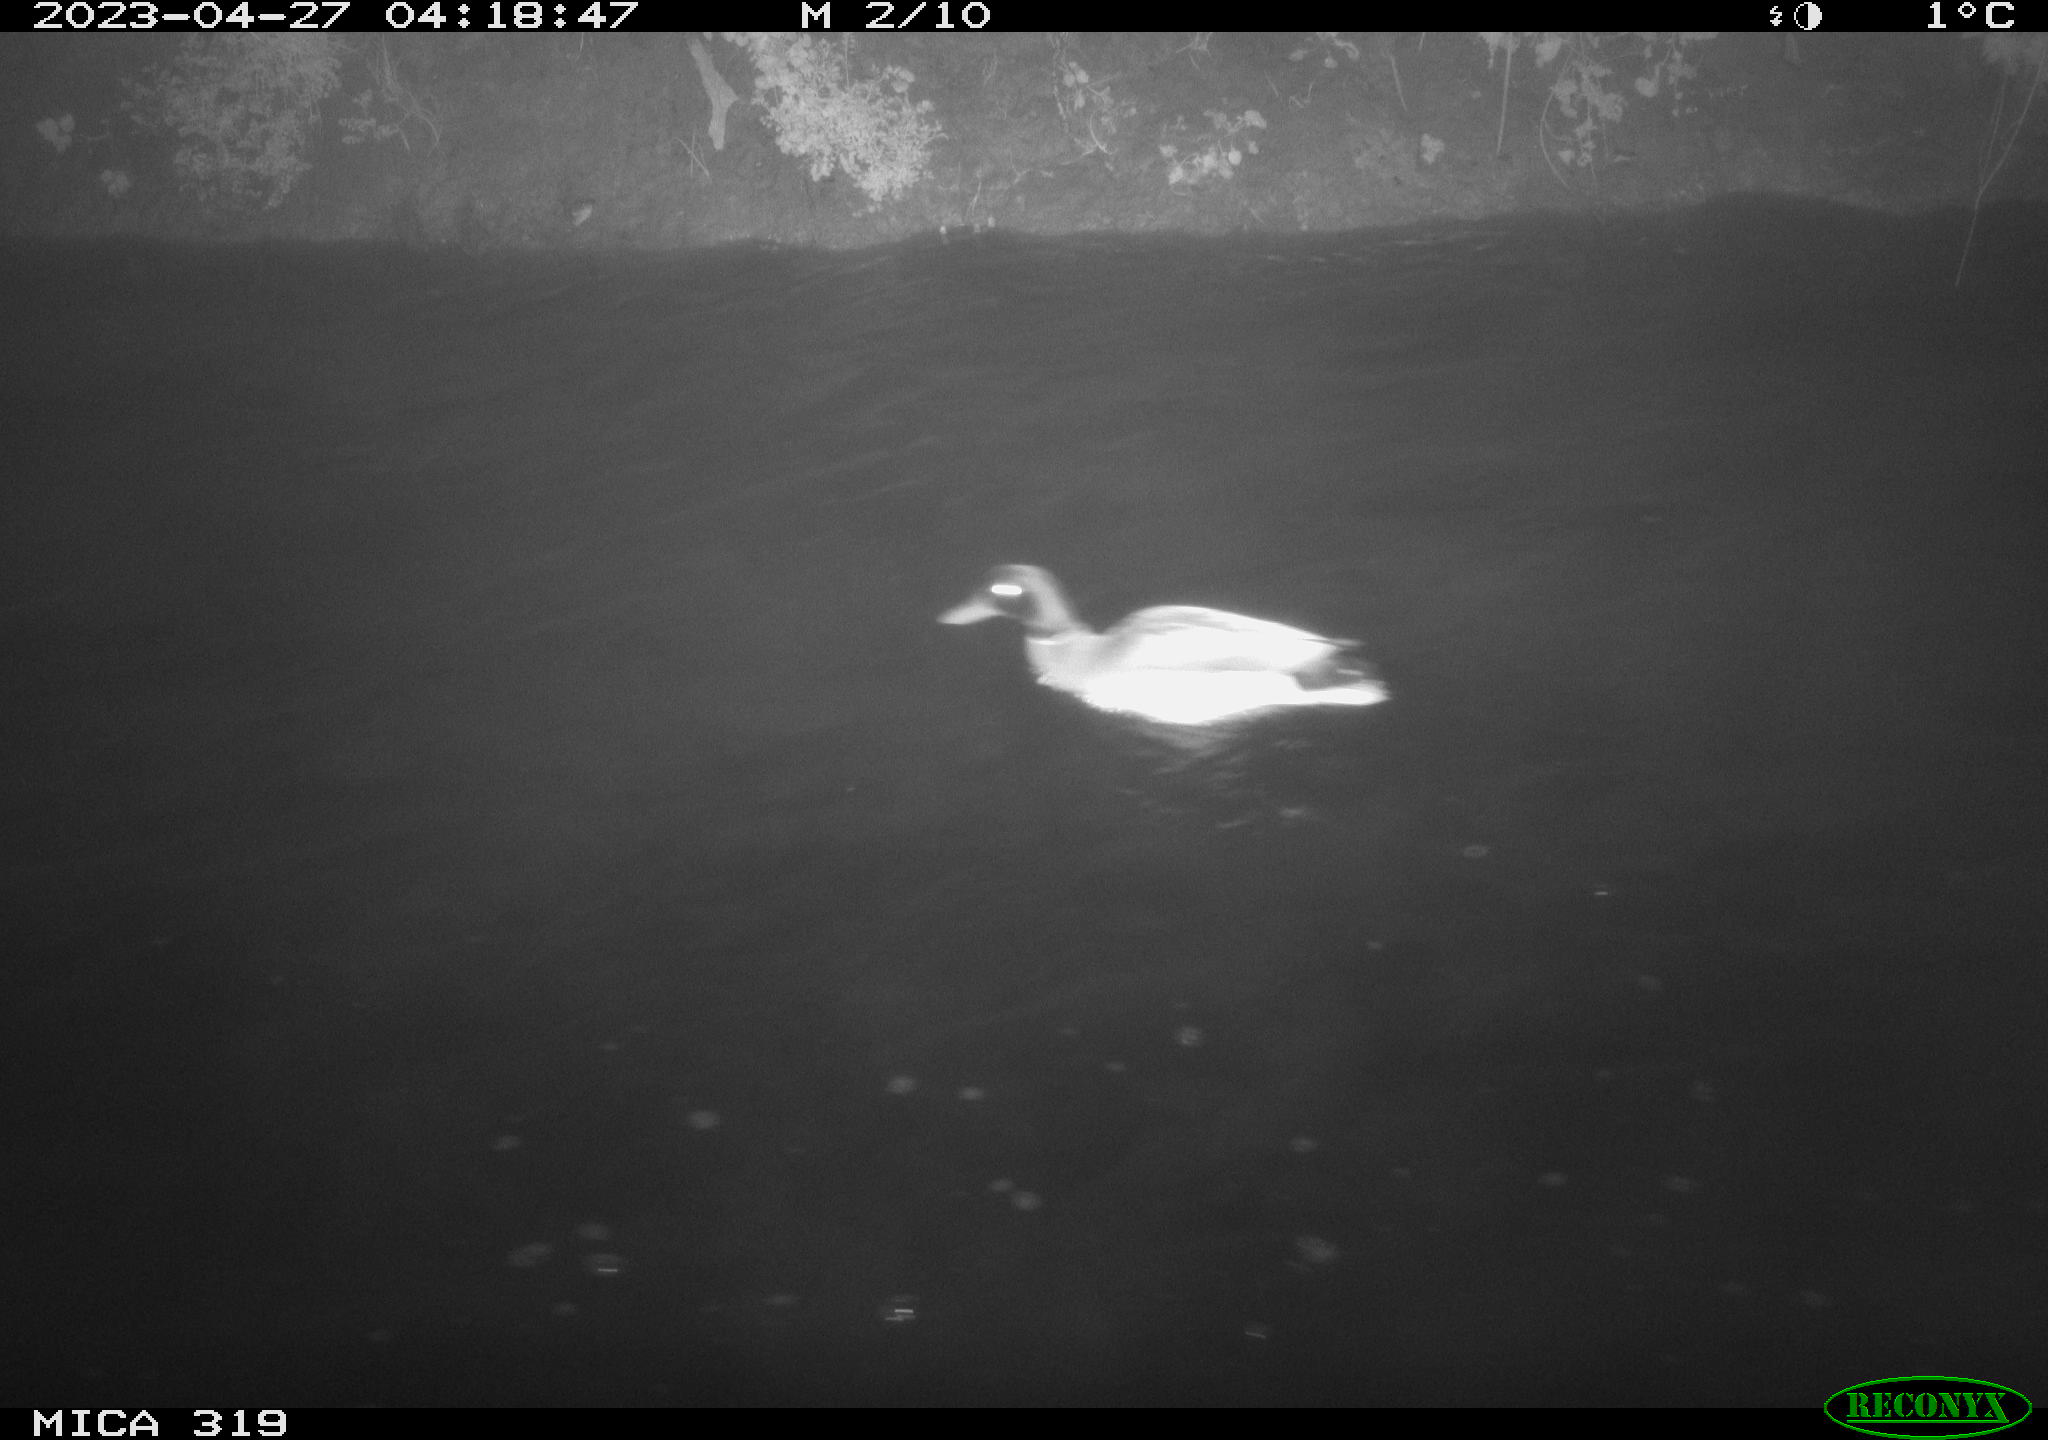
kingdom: Animalia
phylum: Chordata
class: Aves
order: Anseriformes
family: Anatidae
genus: Anas
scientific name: Anas
